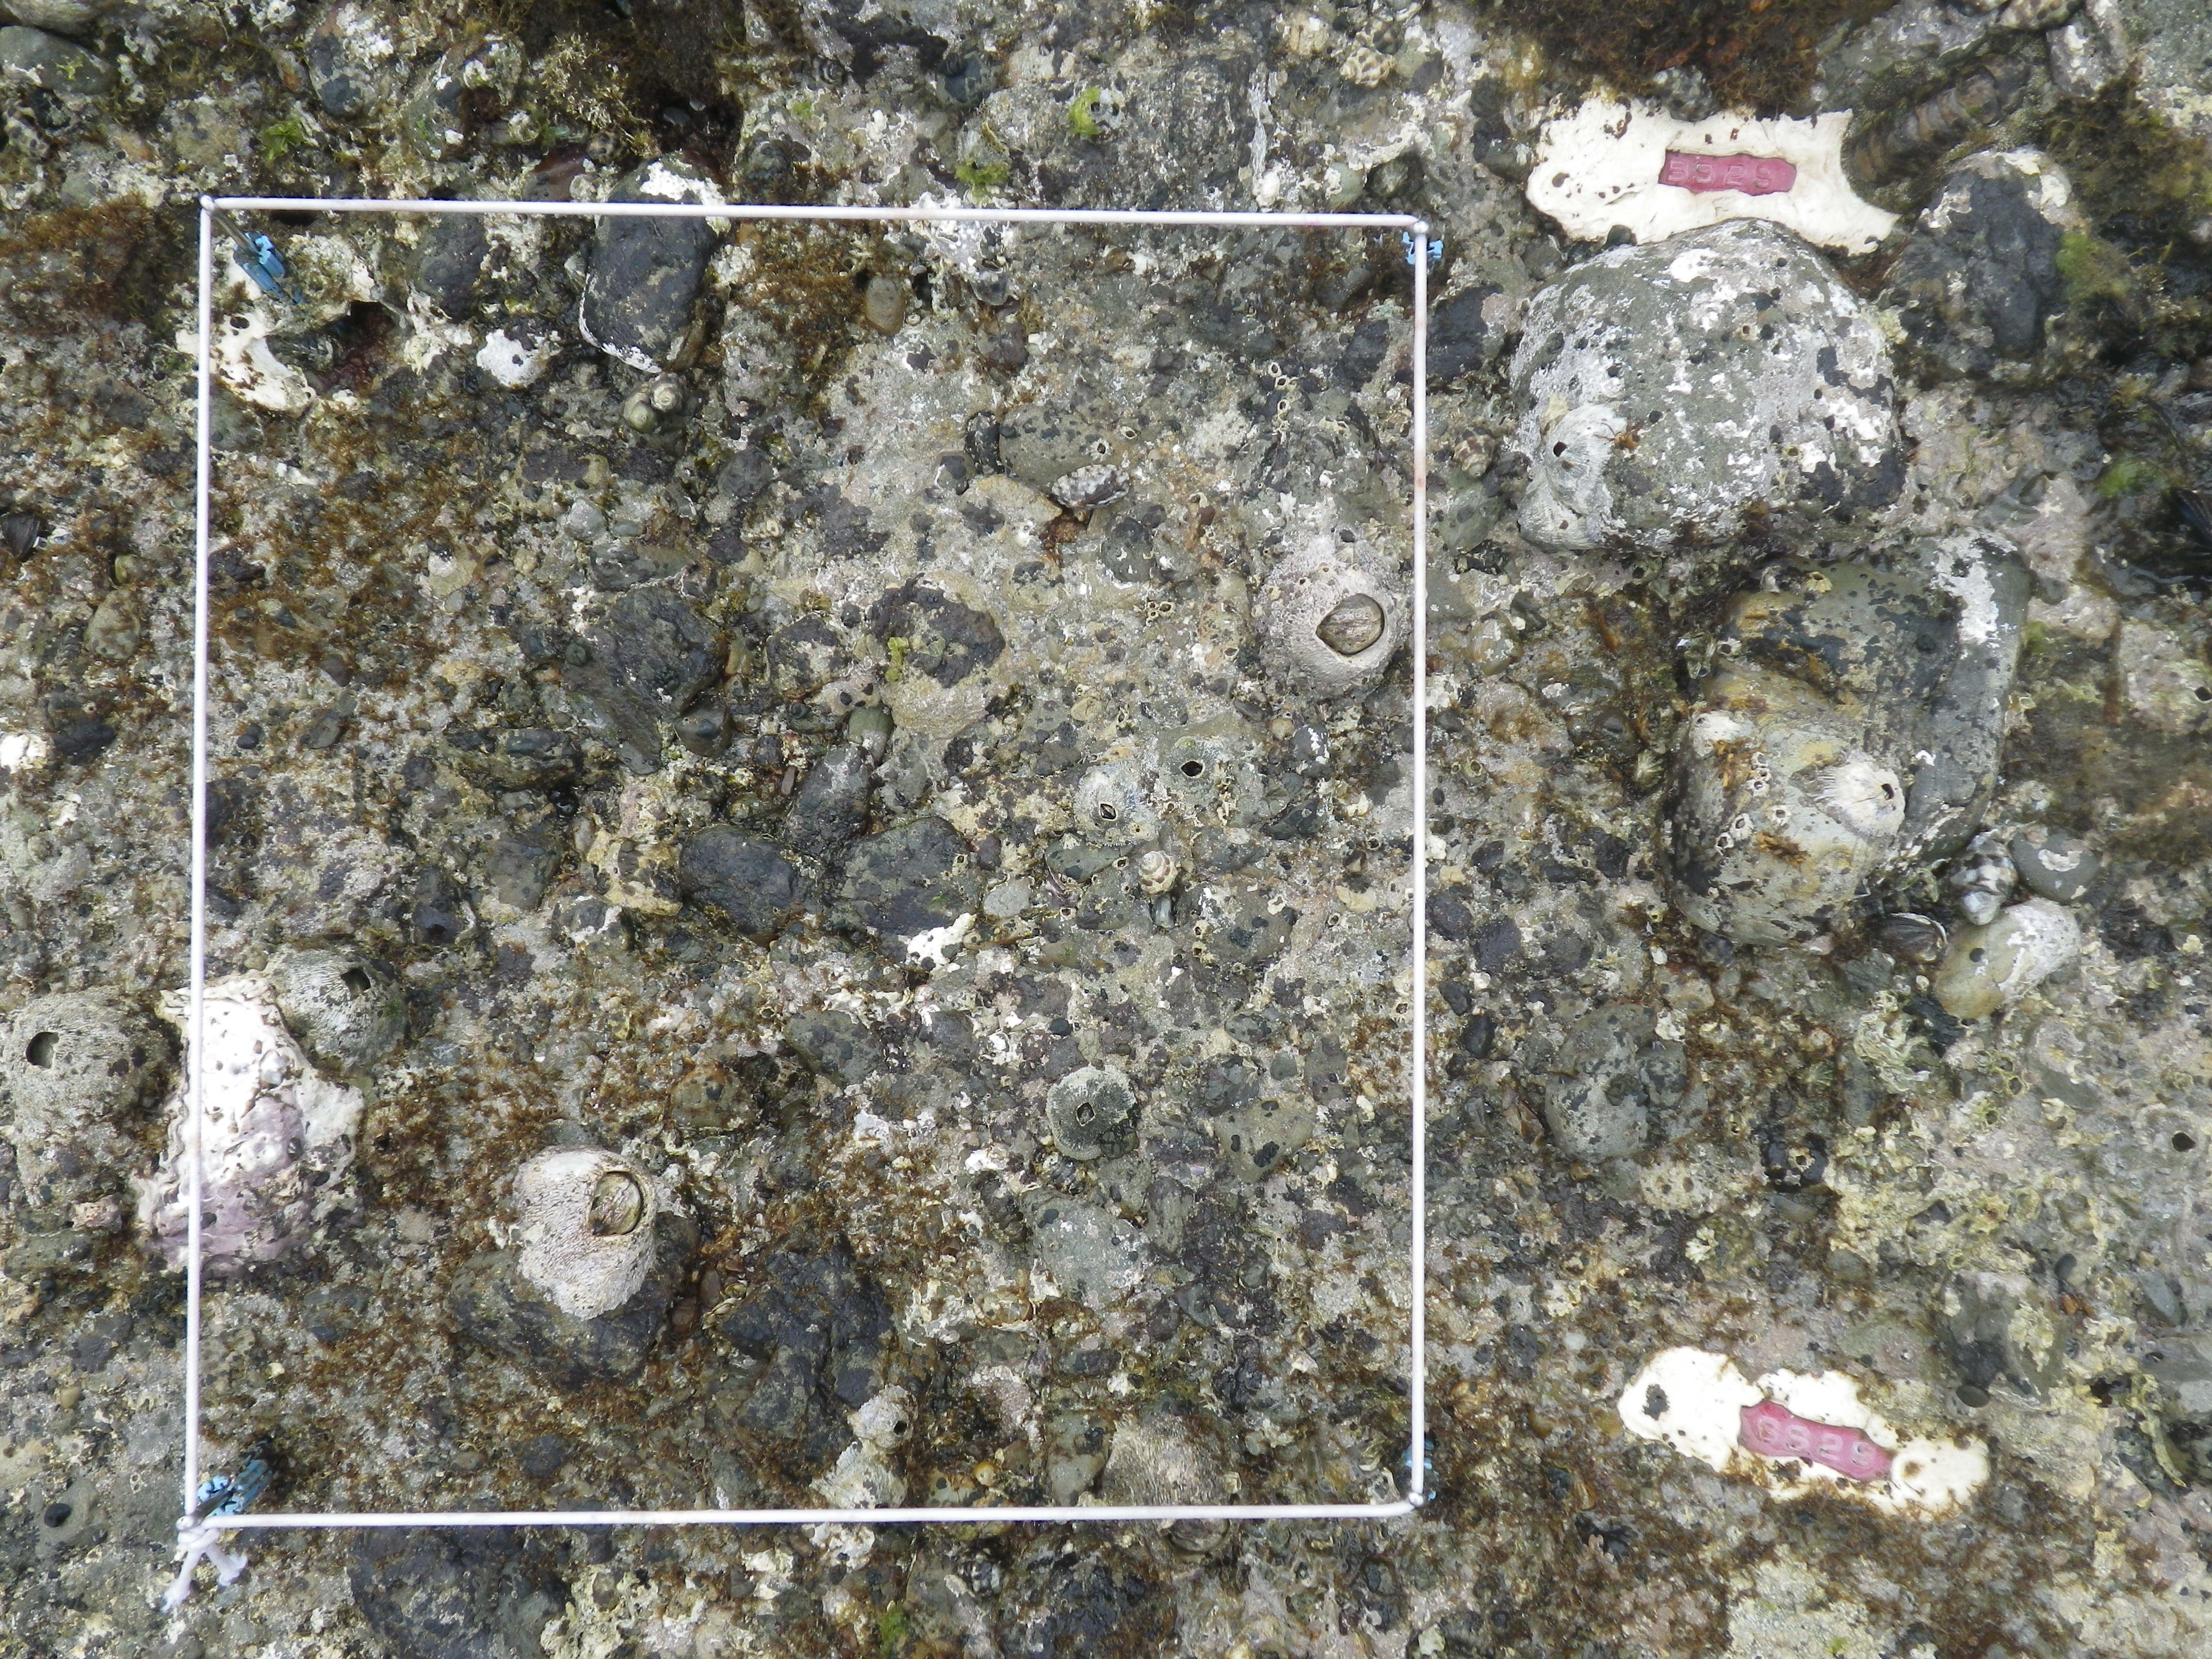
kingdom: Animalia
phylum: Arthropoda
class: Maxillopoda
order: Sessilia
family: Chthamalidae
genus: Chthamalus
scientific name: Chthamalus challengeri
